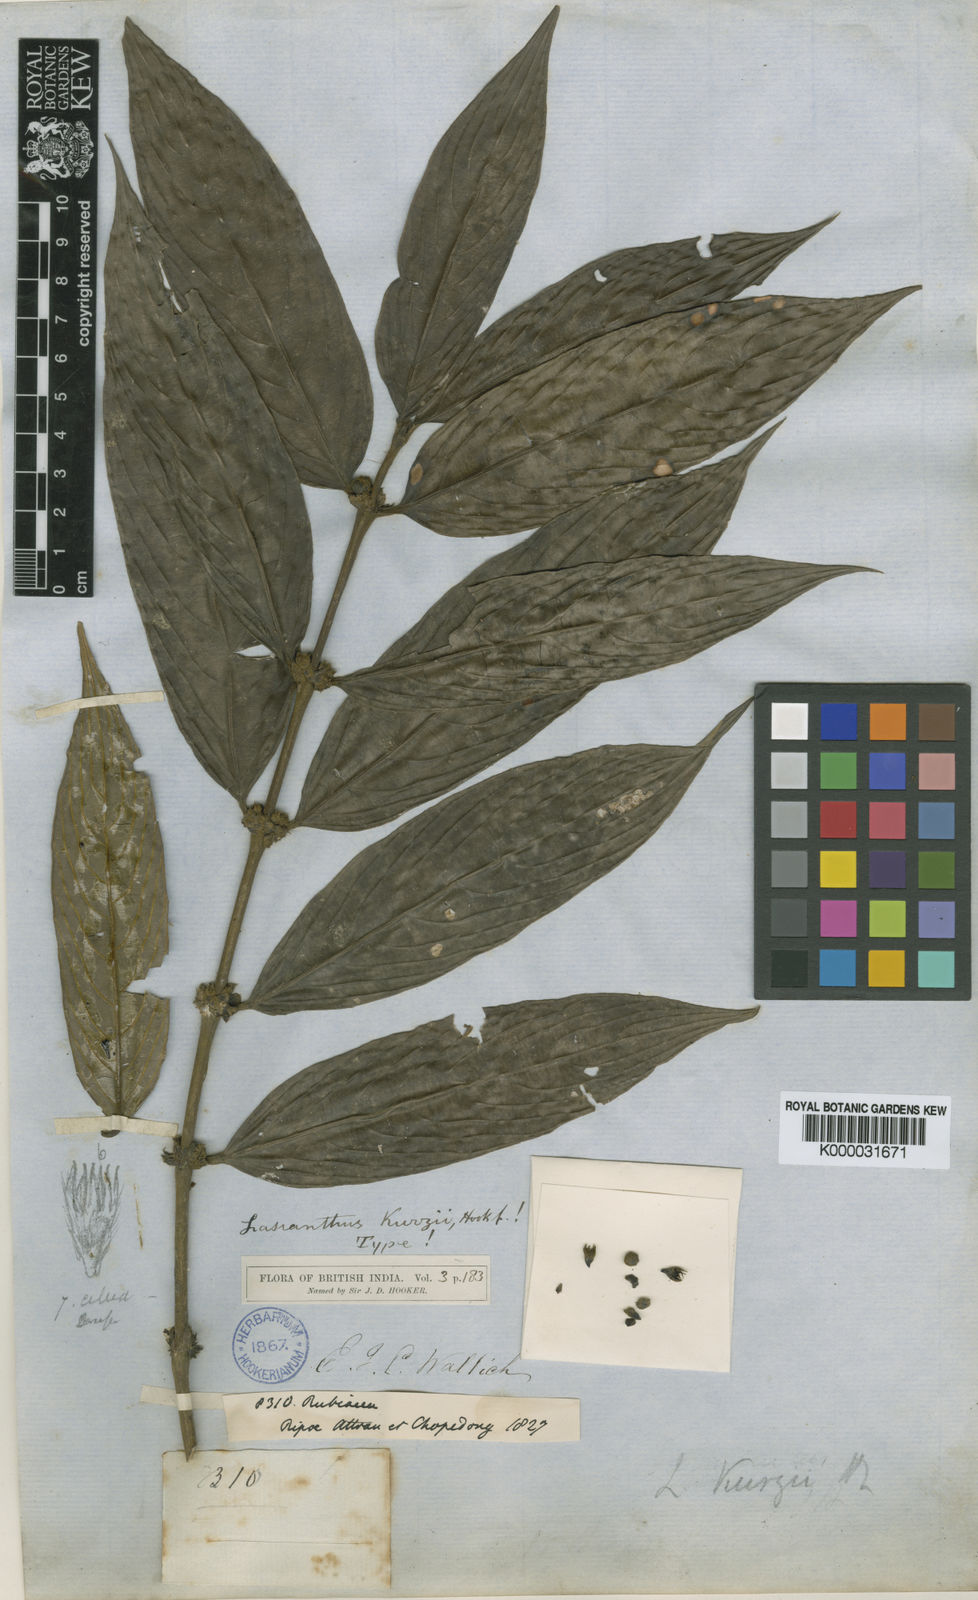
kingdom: Plantae
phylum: Tracheophyta
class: Magnoliopsida
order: Gentianales
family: Rubiaceae
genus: Lasianthus
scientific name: Lasianthus chrysoneurus
